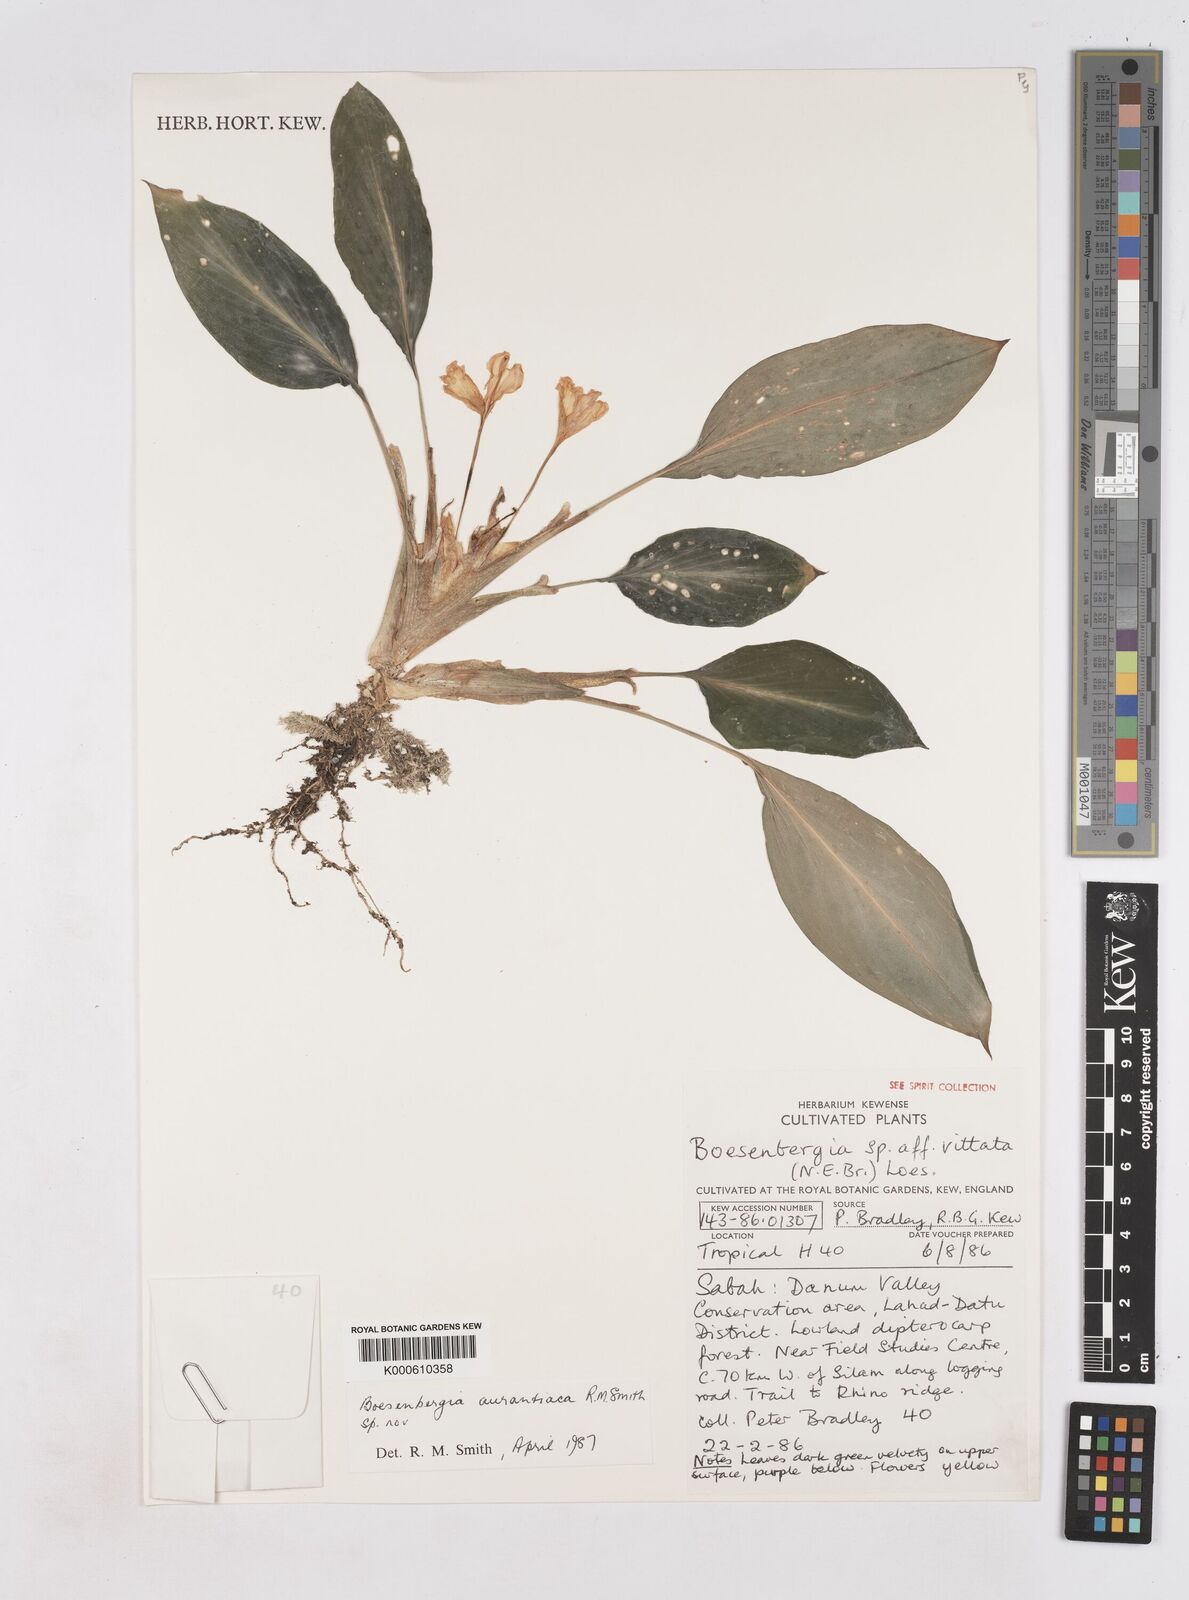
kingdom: Plantae
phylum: Tracheophyta
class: Liliopsida
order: Zingiberales
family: Zingiberaceae
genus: Boesenbergia
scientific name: Boesenbergia aurantiaca
